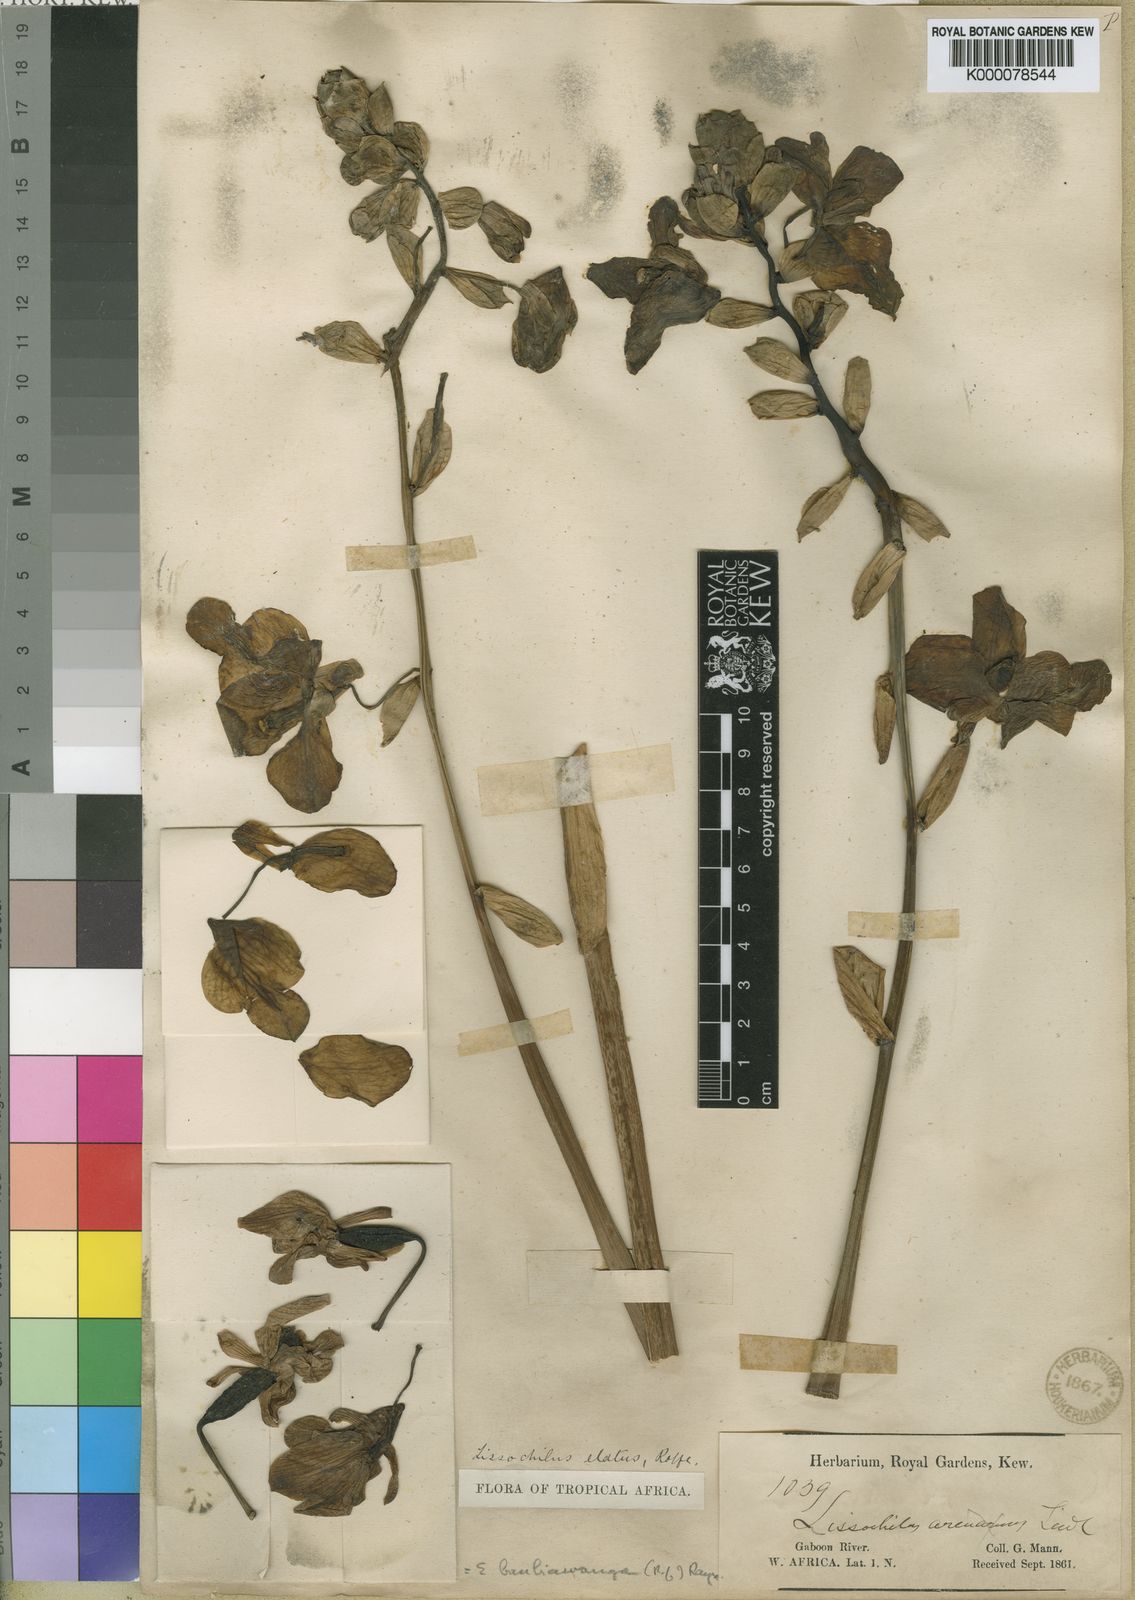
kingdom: Plantae
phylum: Tracheophyta
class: Liliopsida
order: Asparagales
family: Orchidaceae
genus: Eulophia
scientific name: Eulophia bouliawongo
